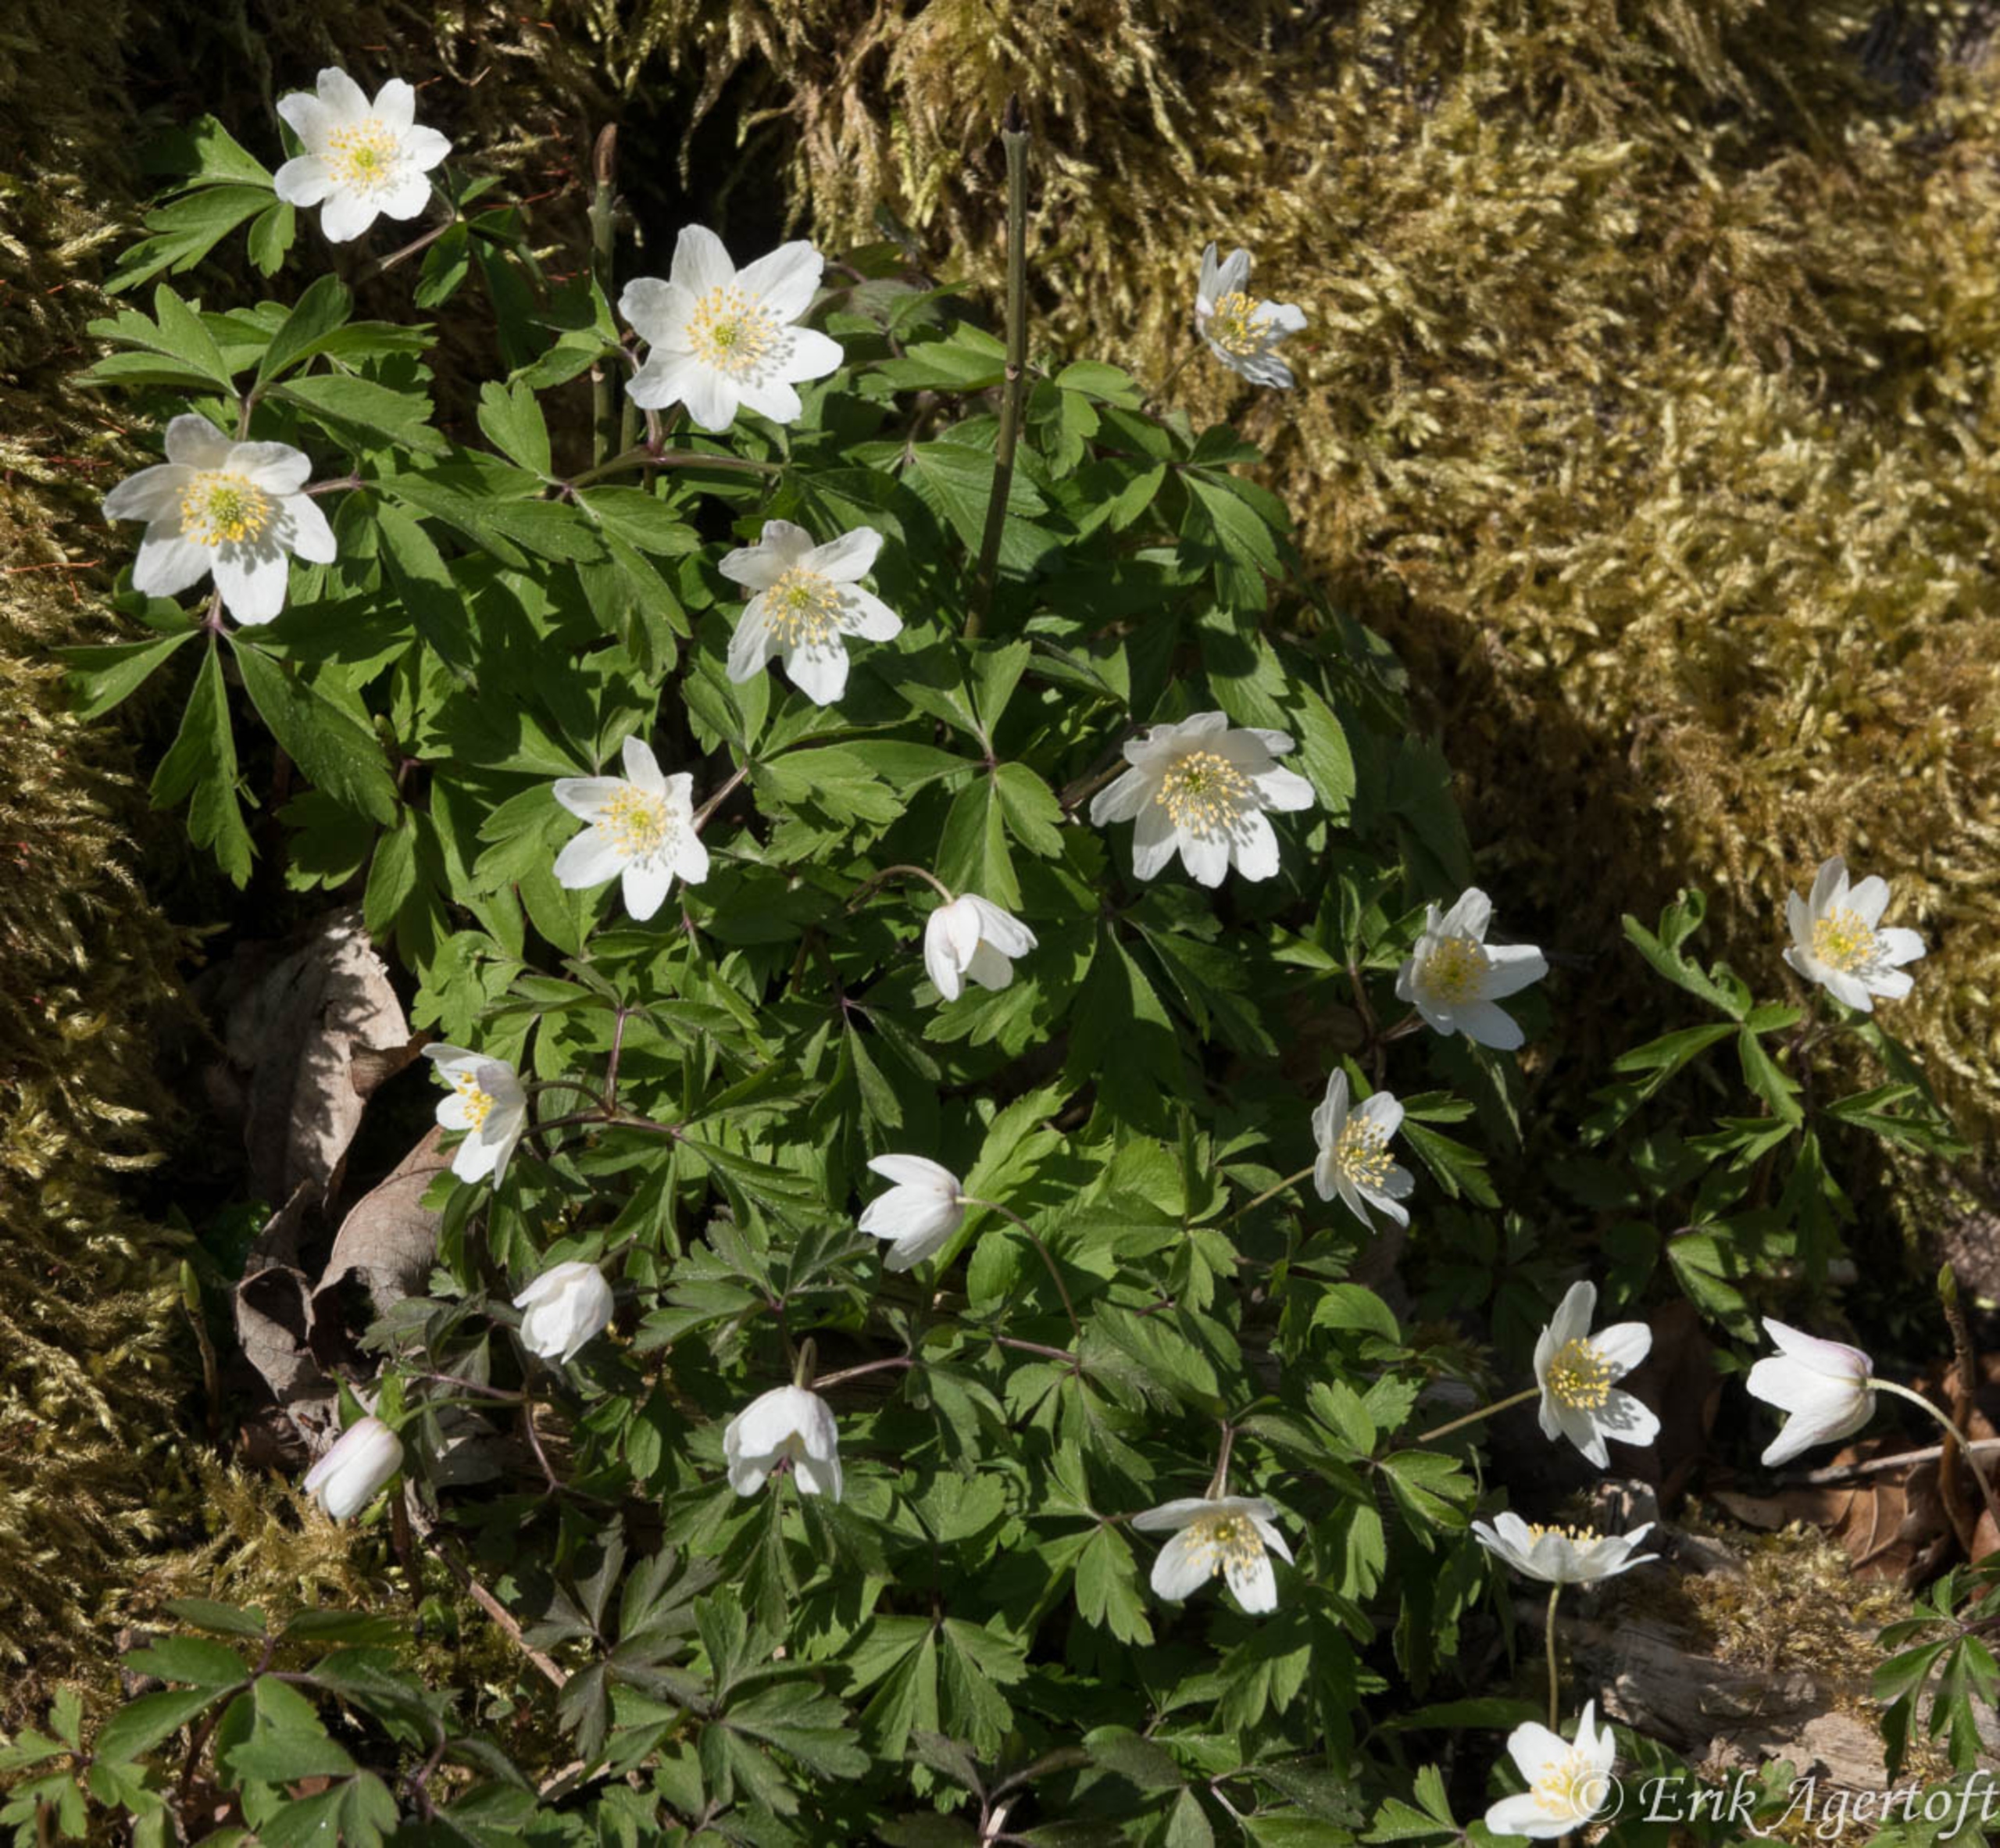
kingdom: Plantae
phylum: Tracheophyta
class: Magnoliopsida
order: Ranunculales
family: Ranunculaceae
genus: Anemone
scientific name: Anemone nemorosa
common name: Hvid anemone
